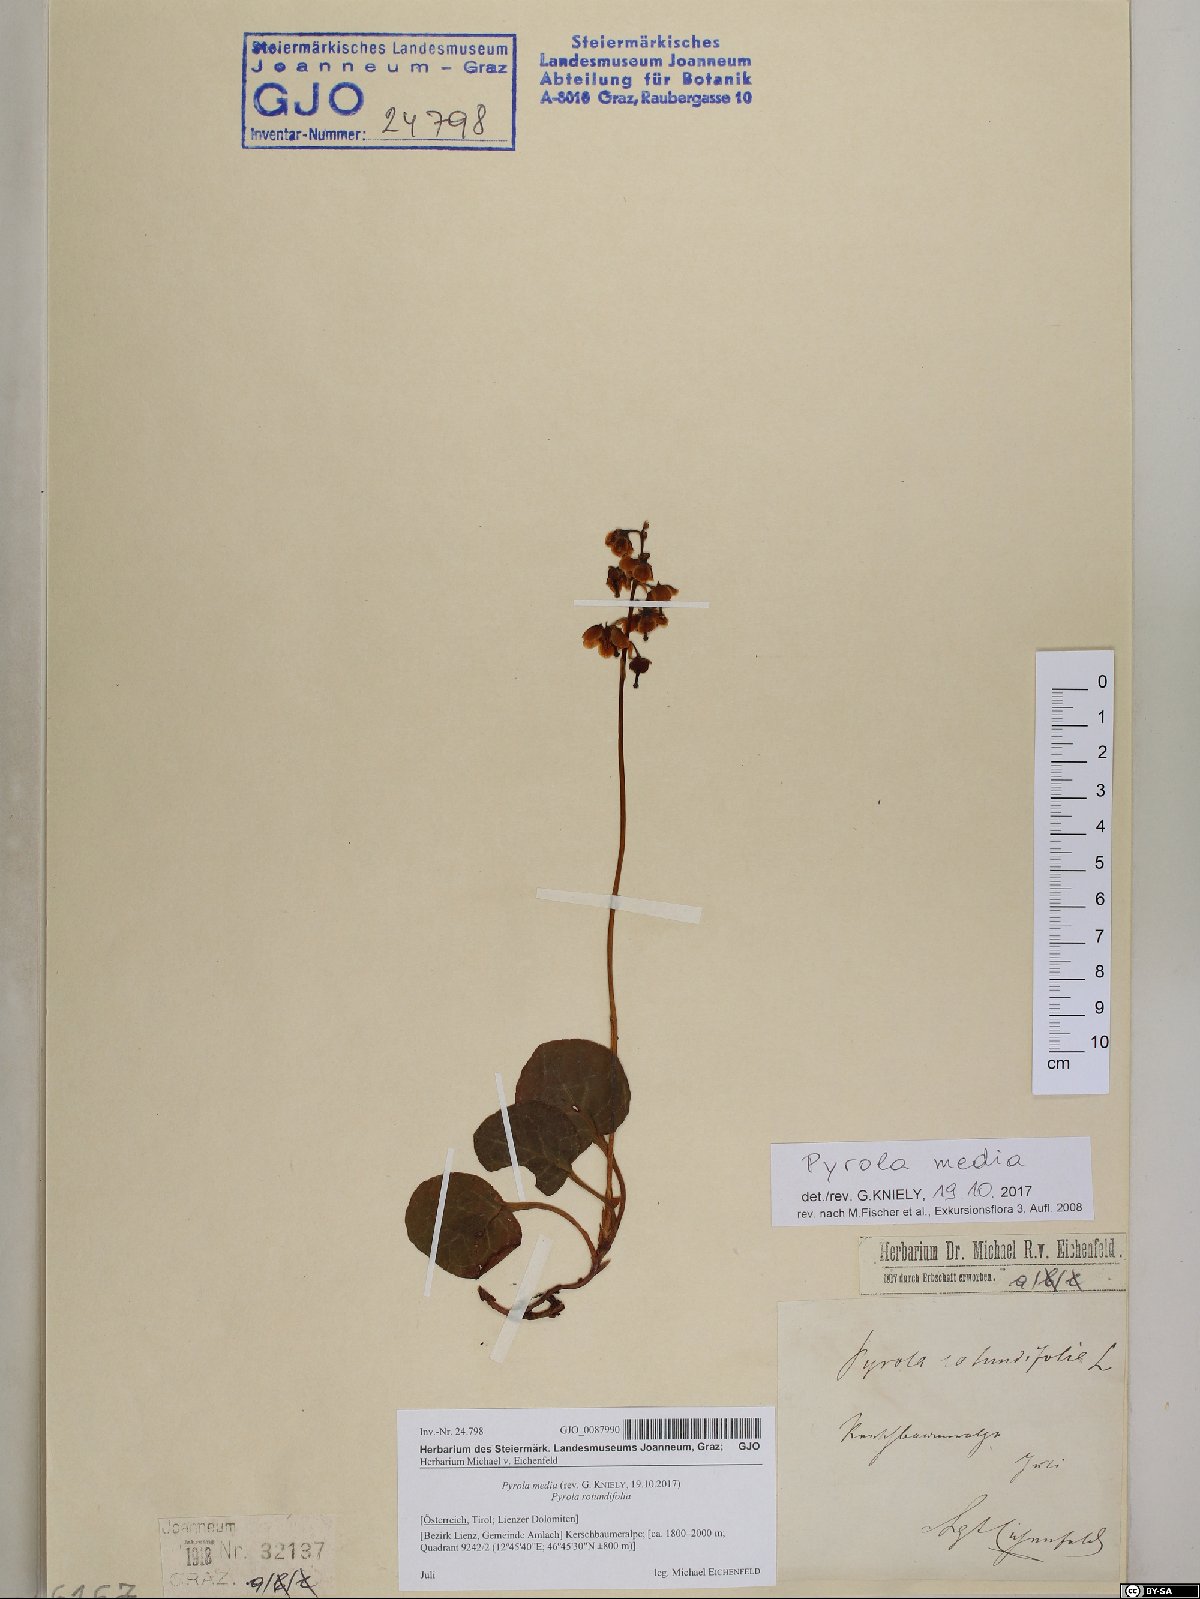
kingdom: Plantae
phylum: Tracheophyta
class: Magnoliopsida
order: Ericales
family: Ericaceae
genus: Pyrola
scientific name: Pyrola media
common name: Intermediate wintergreen
